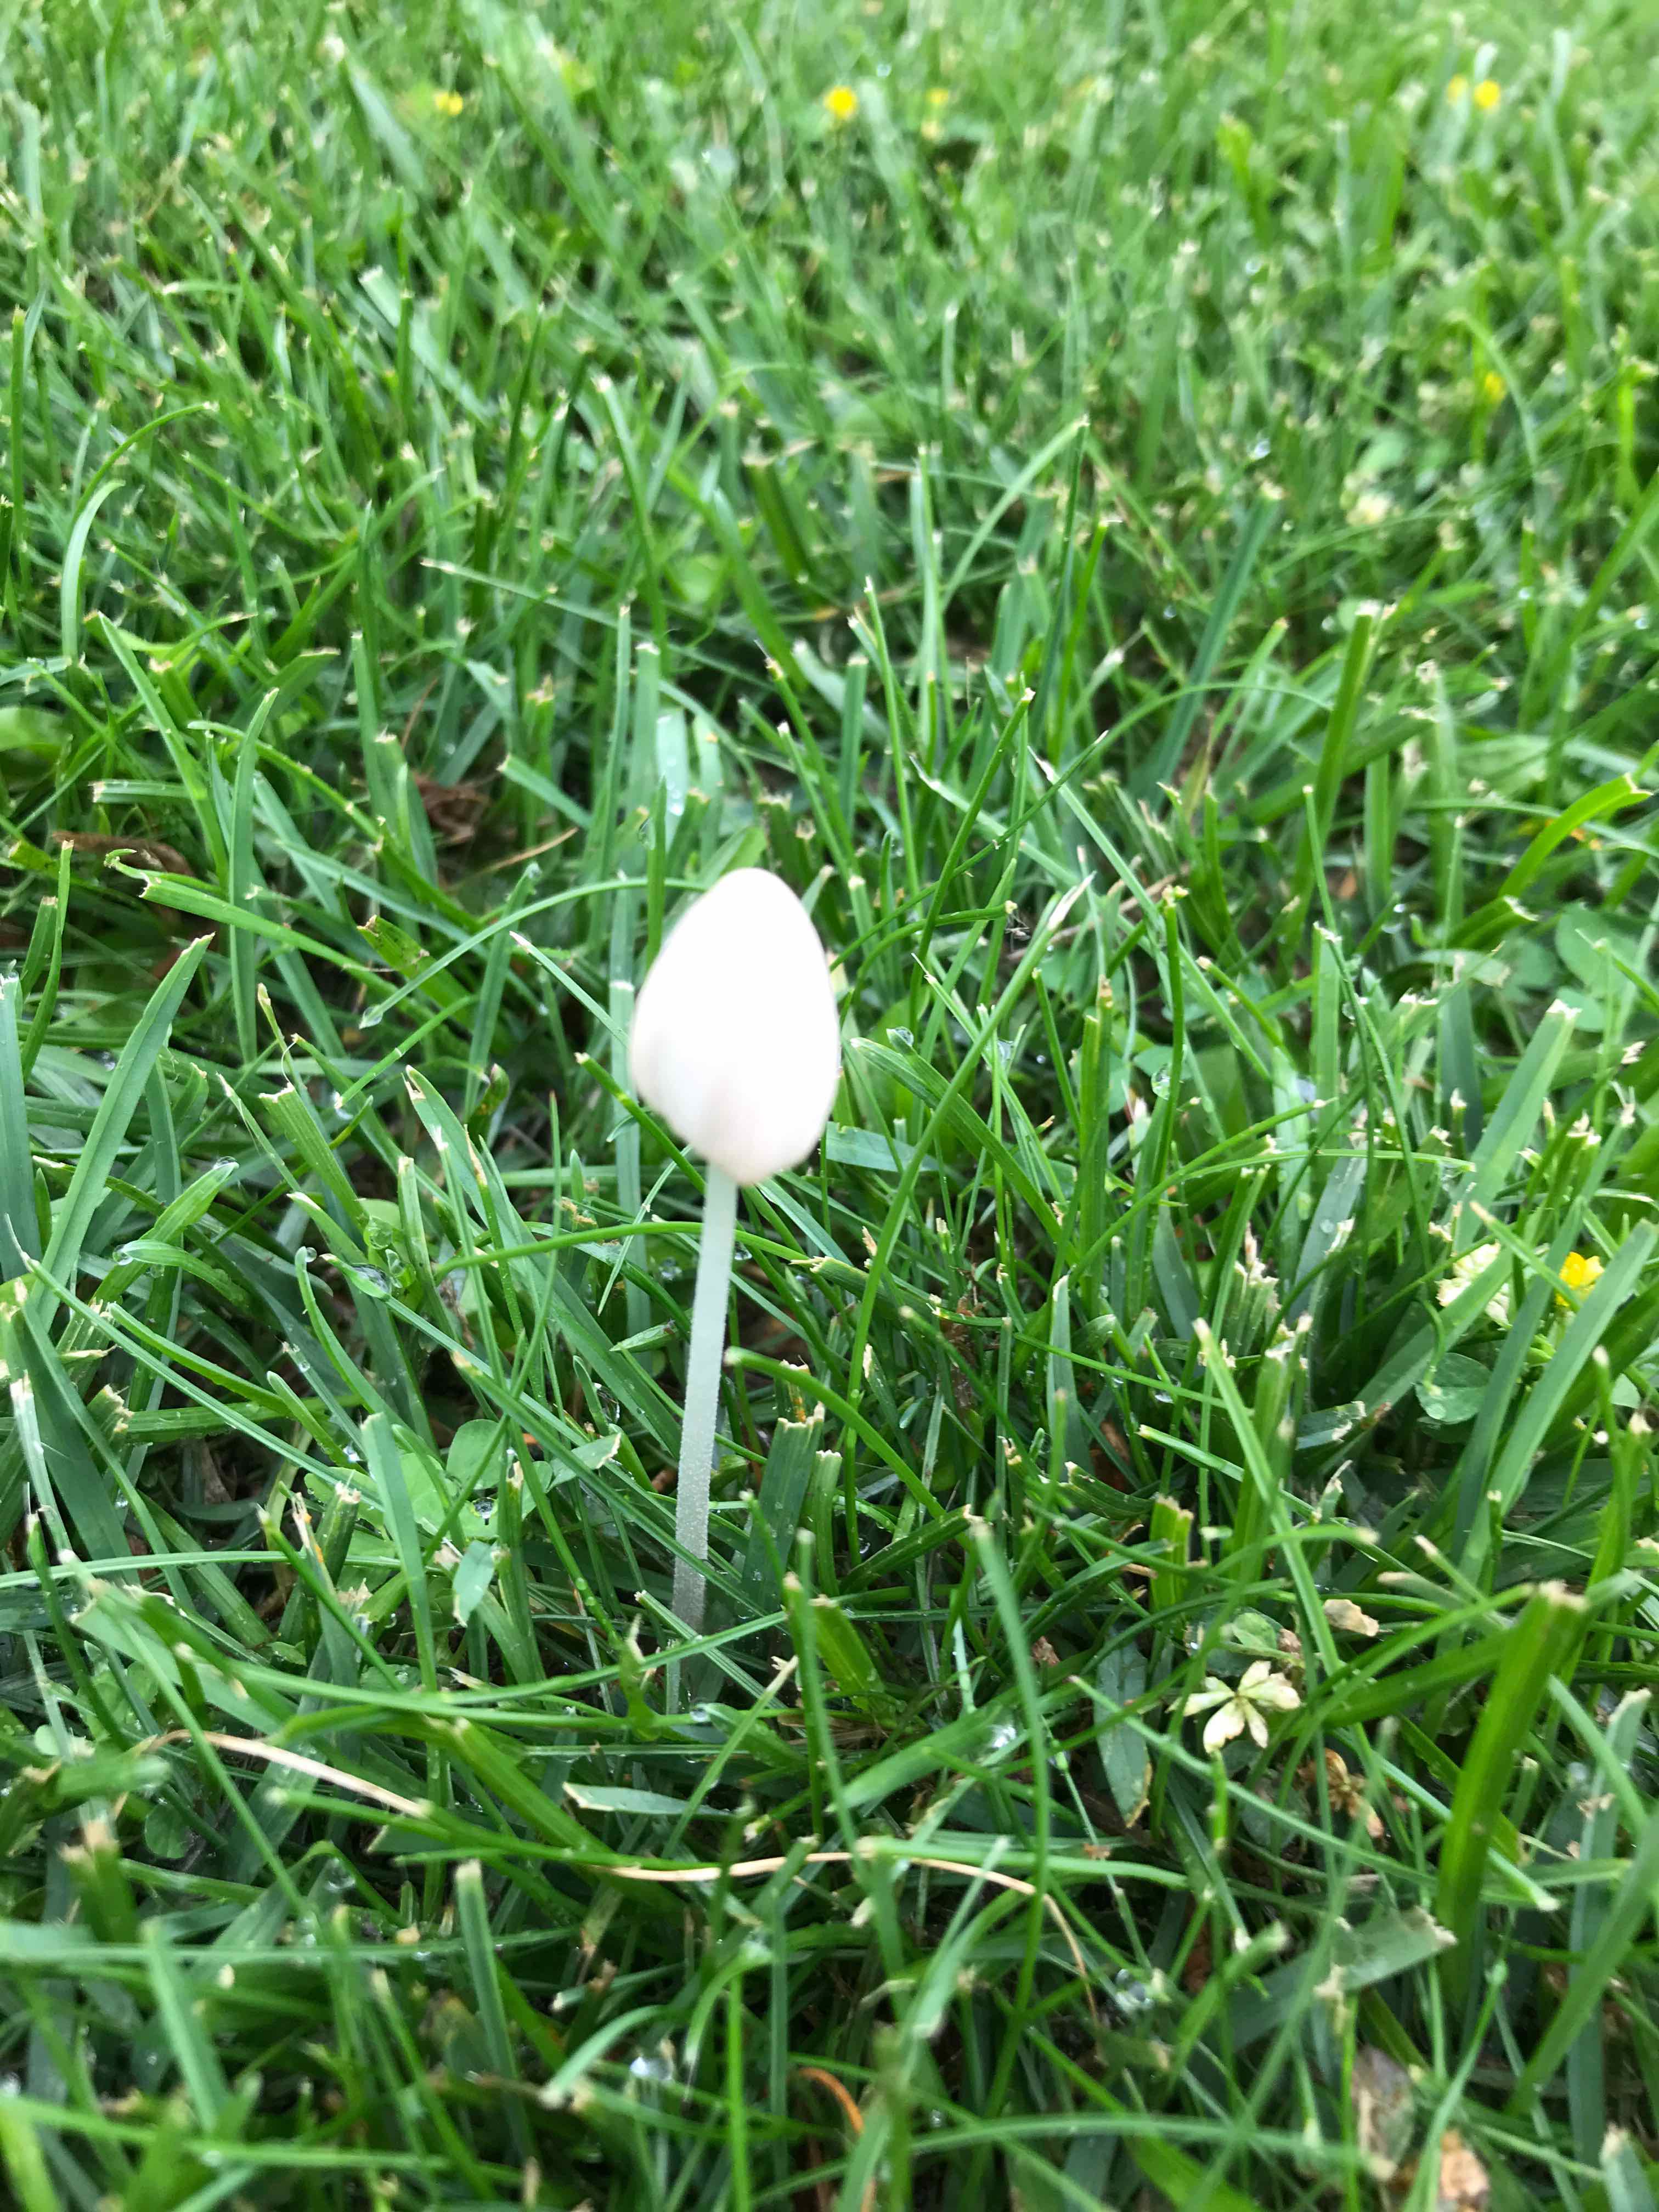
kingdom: Fungi
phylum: Basidiomycota
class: Agaricomycetes
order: Agaricales
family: Bolbitiaceae
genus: Conocybe
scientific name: Conocybe apala
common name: mælkehvid keglehat
